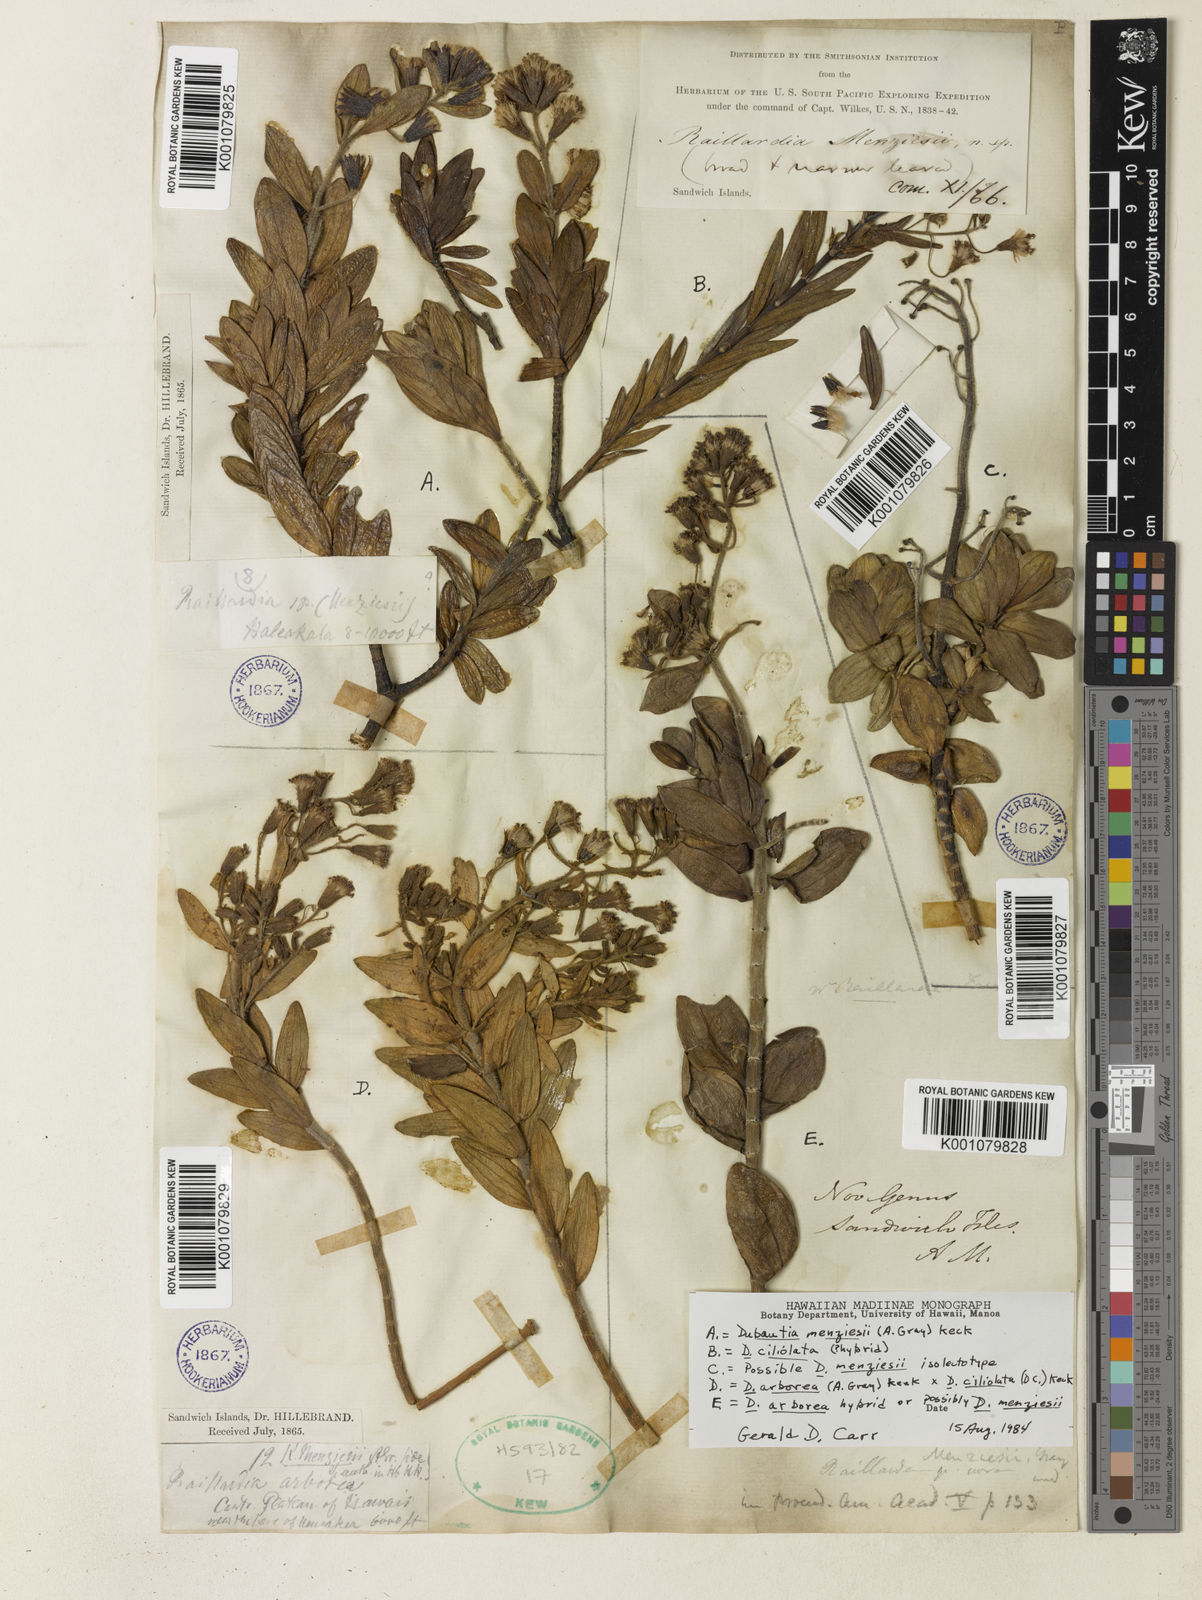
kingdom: Plantae
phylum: Tracheophyta
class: Magnoliopsida
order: Asterales
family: Asteraceae
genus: Dubautia
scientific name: Dubautia menziesii
